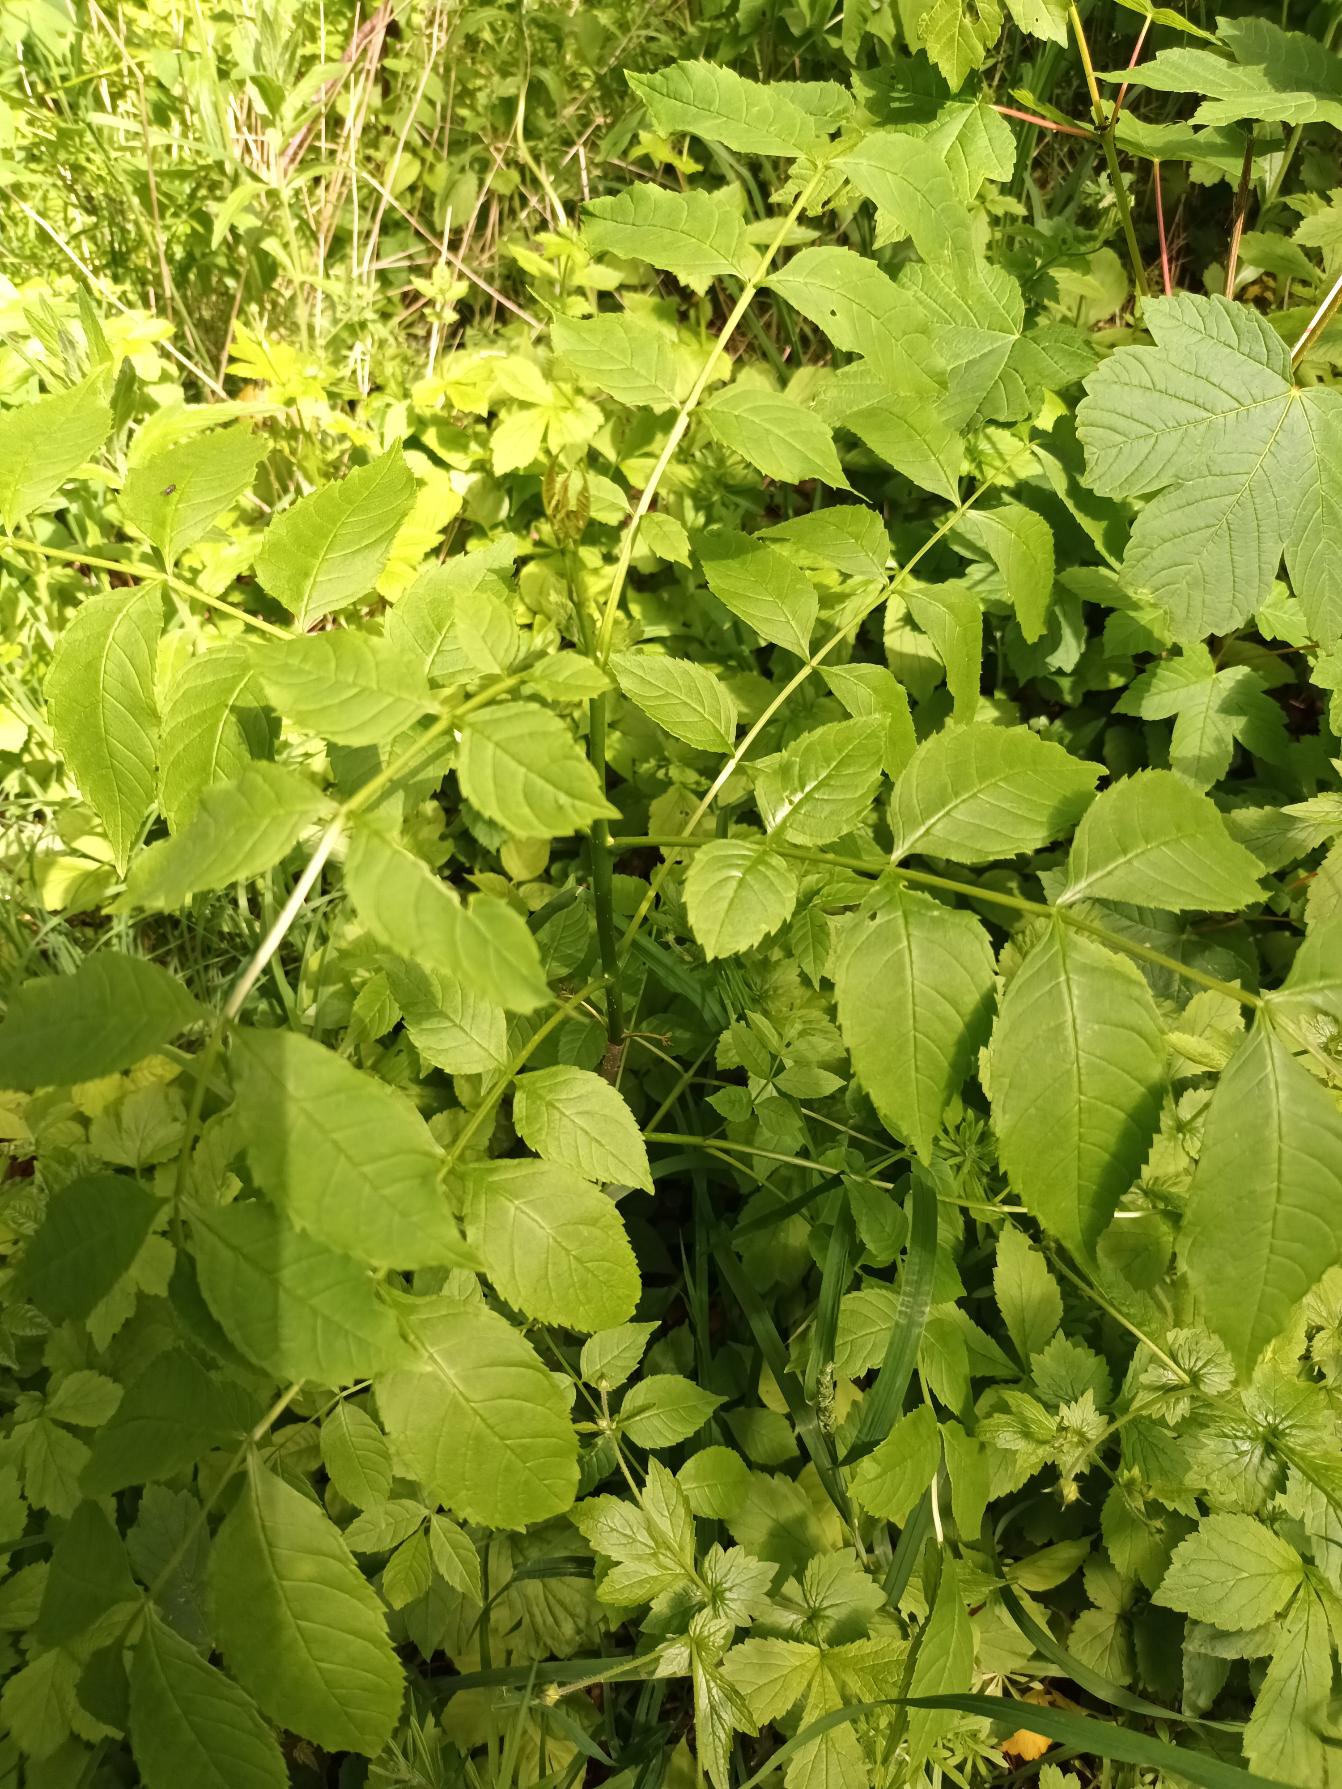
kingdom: Plantae
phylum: Tracheophyta
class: Magnoliopsida
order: Lamiales
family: Oleaceae
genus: Fraxinus
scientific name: Fraxinus excelsior
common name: Ask
